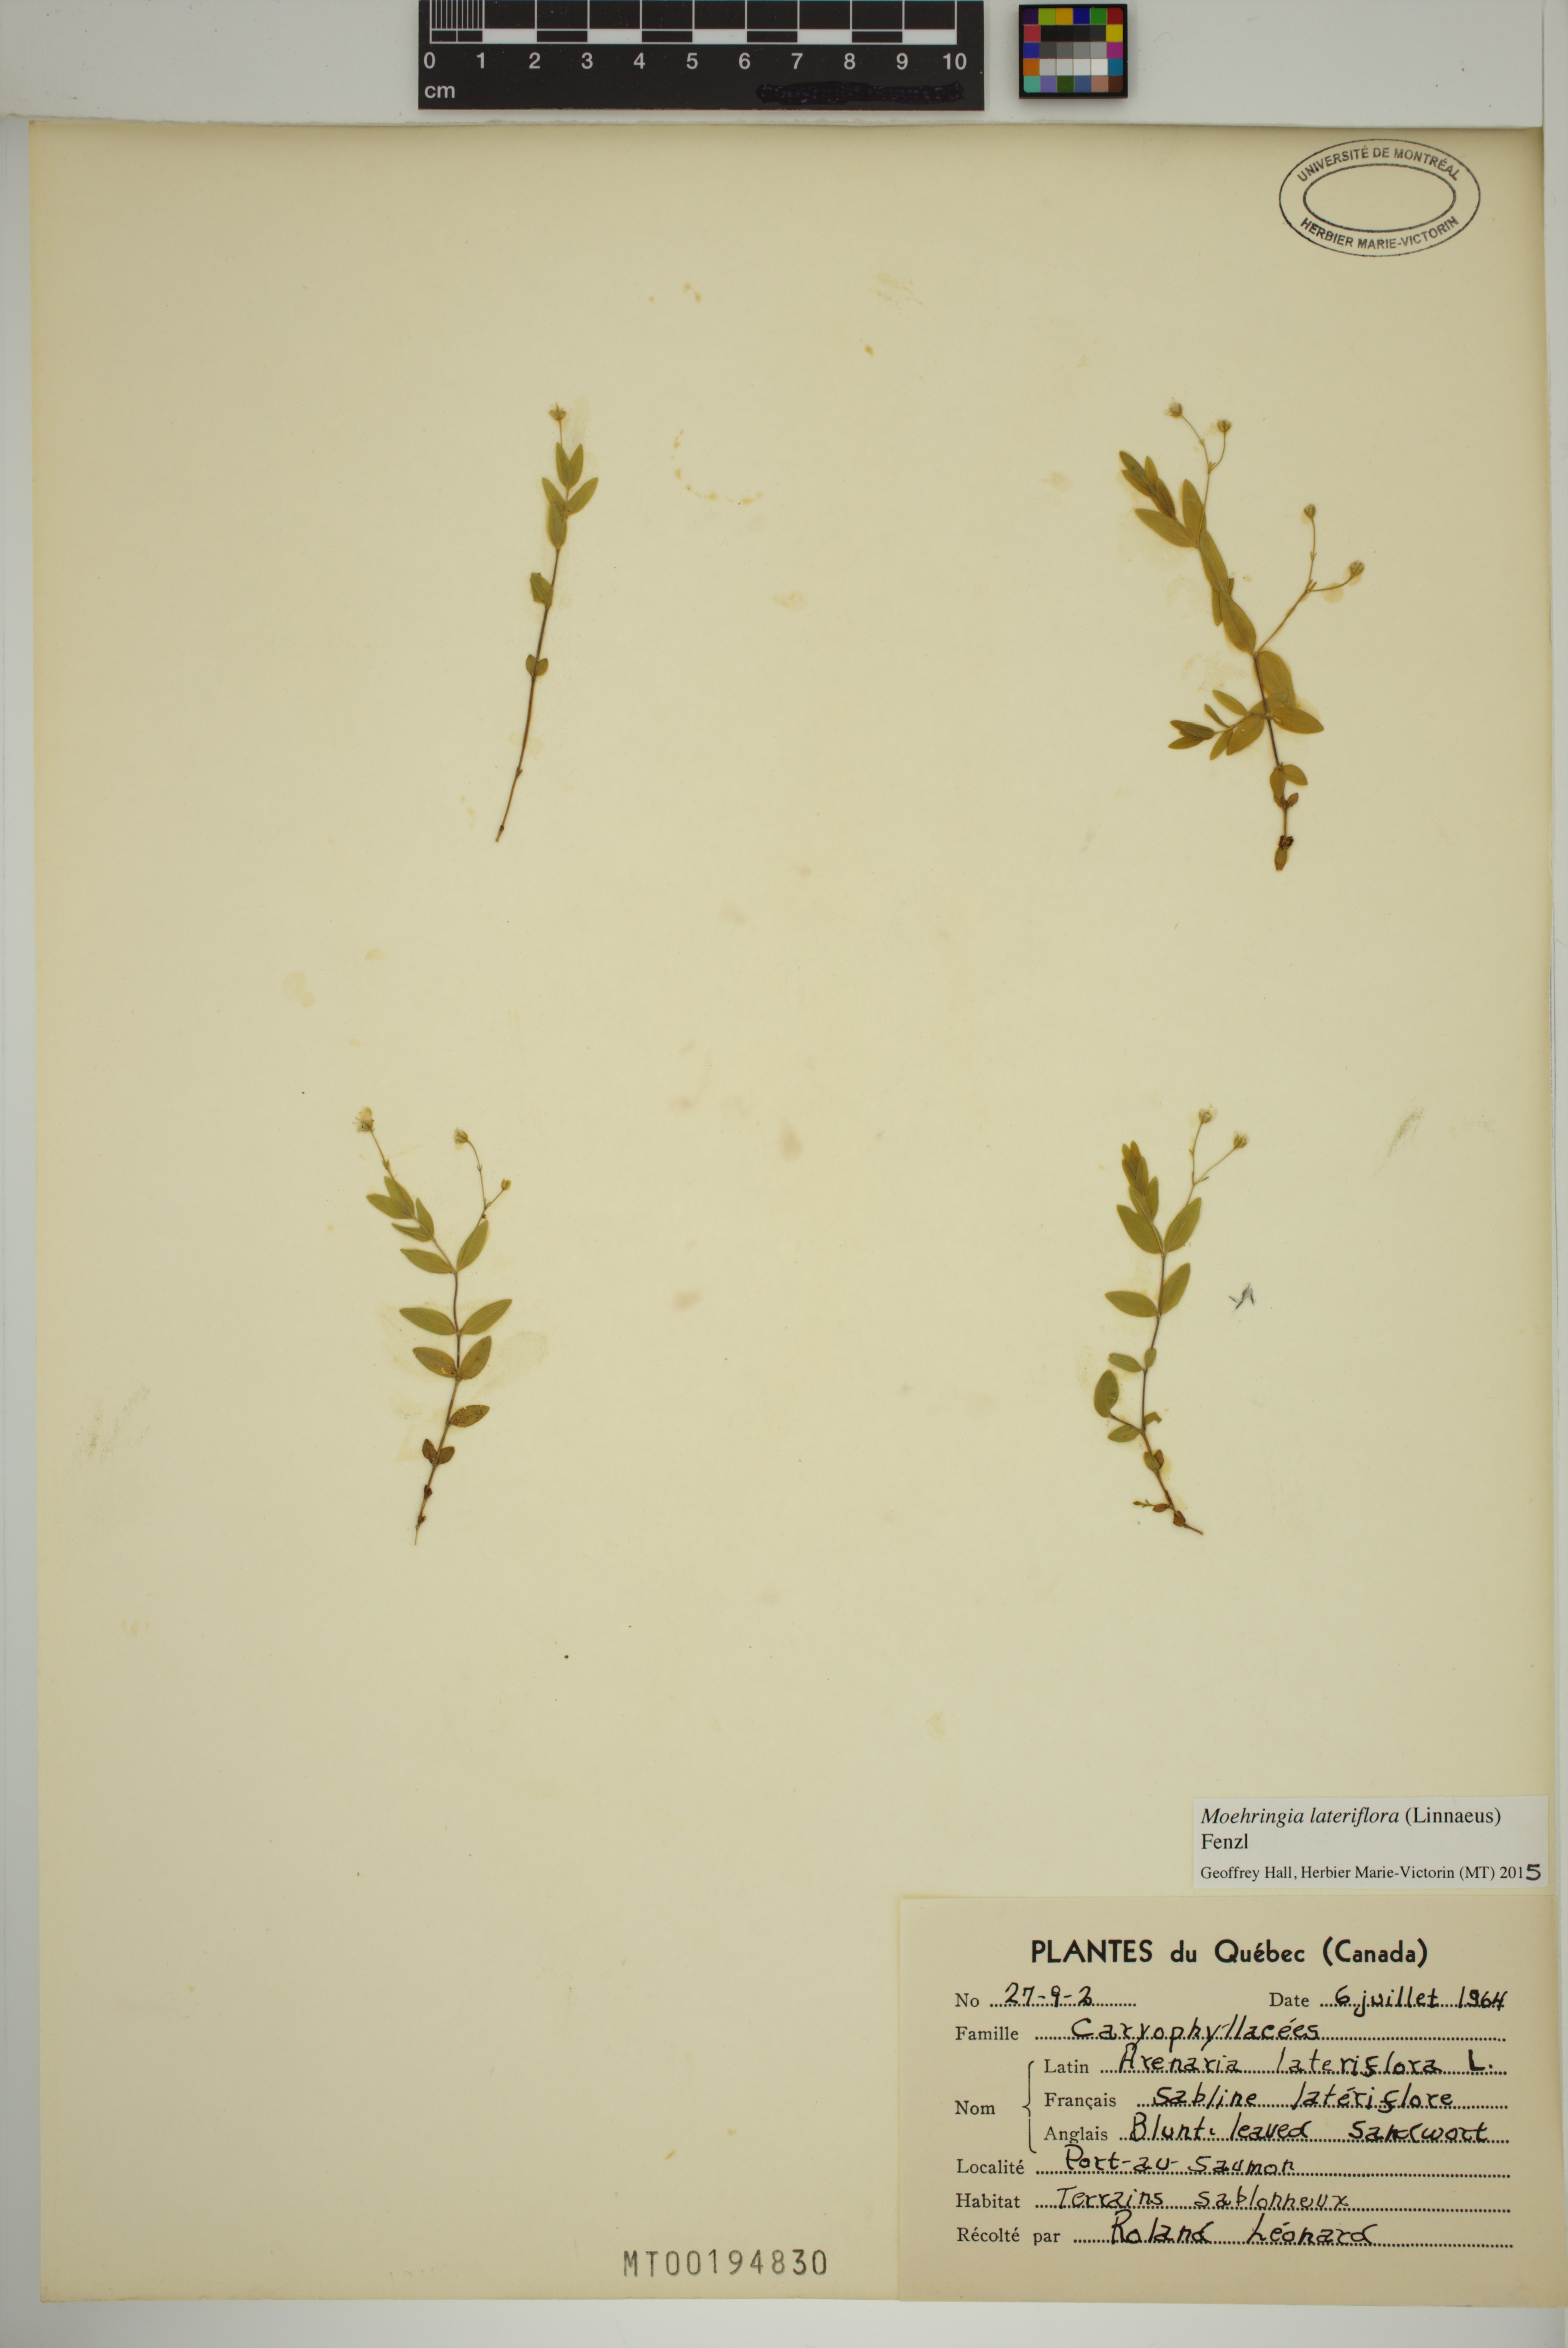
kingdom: Plantae
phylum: Tracheophyta
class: Magnoliopsida
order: Caryophyllales
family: Caryophyllaceae
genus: Moehringia
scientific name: Moehringia lateriflora
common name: Blunt-leaved sandwort
